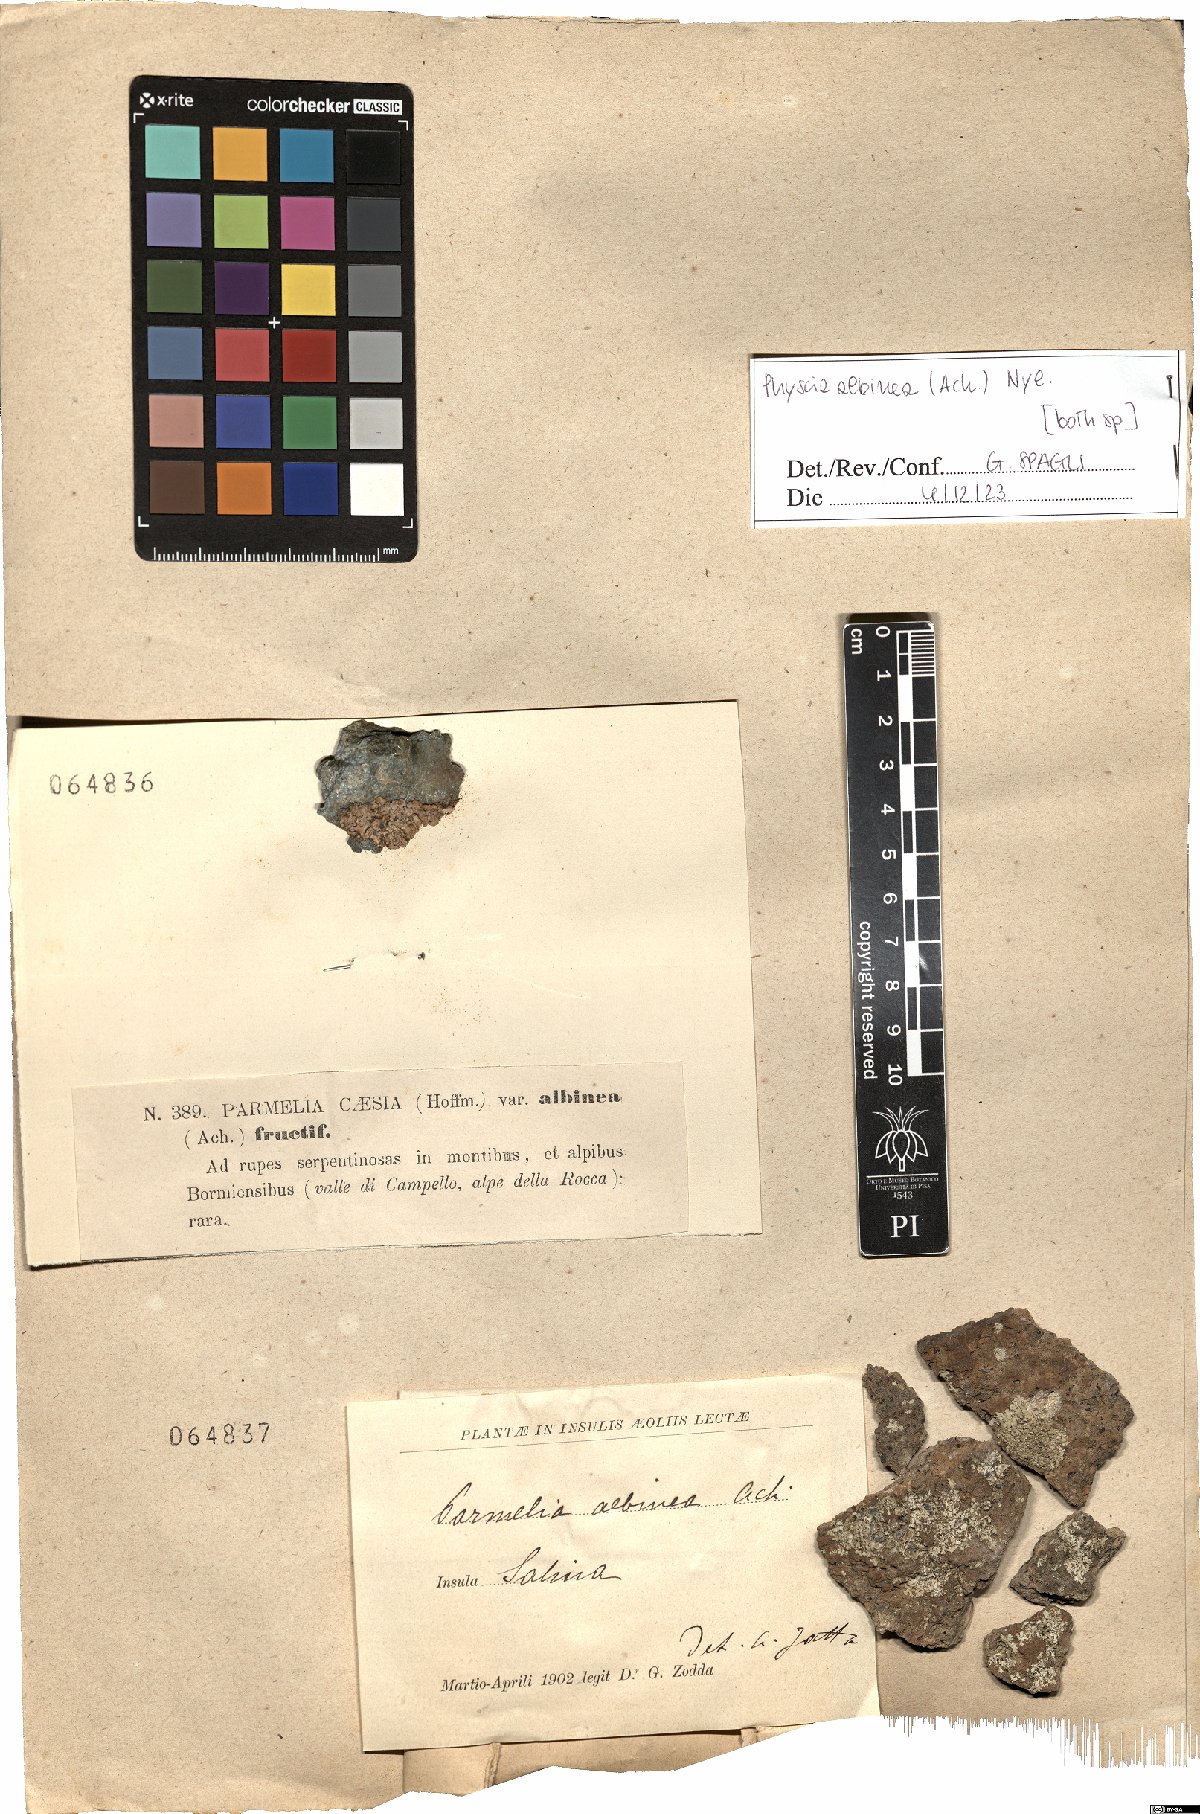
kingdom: Fungi
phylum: Ascomycota
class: Lecanoromycetes
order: Caliciales
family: Physciaceae
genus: Physcia
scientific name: Physcia albinea
